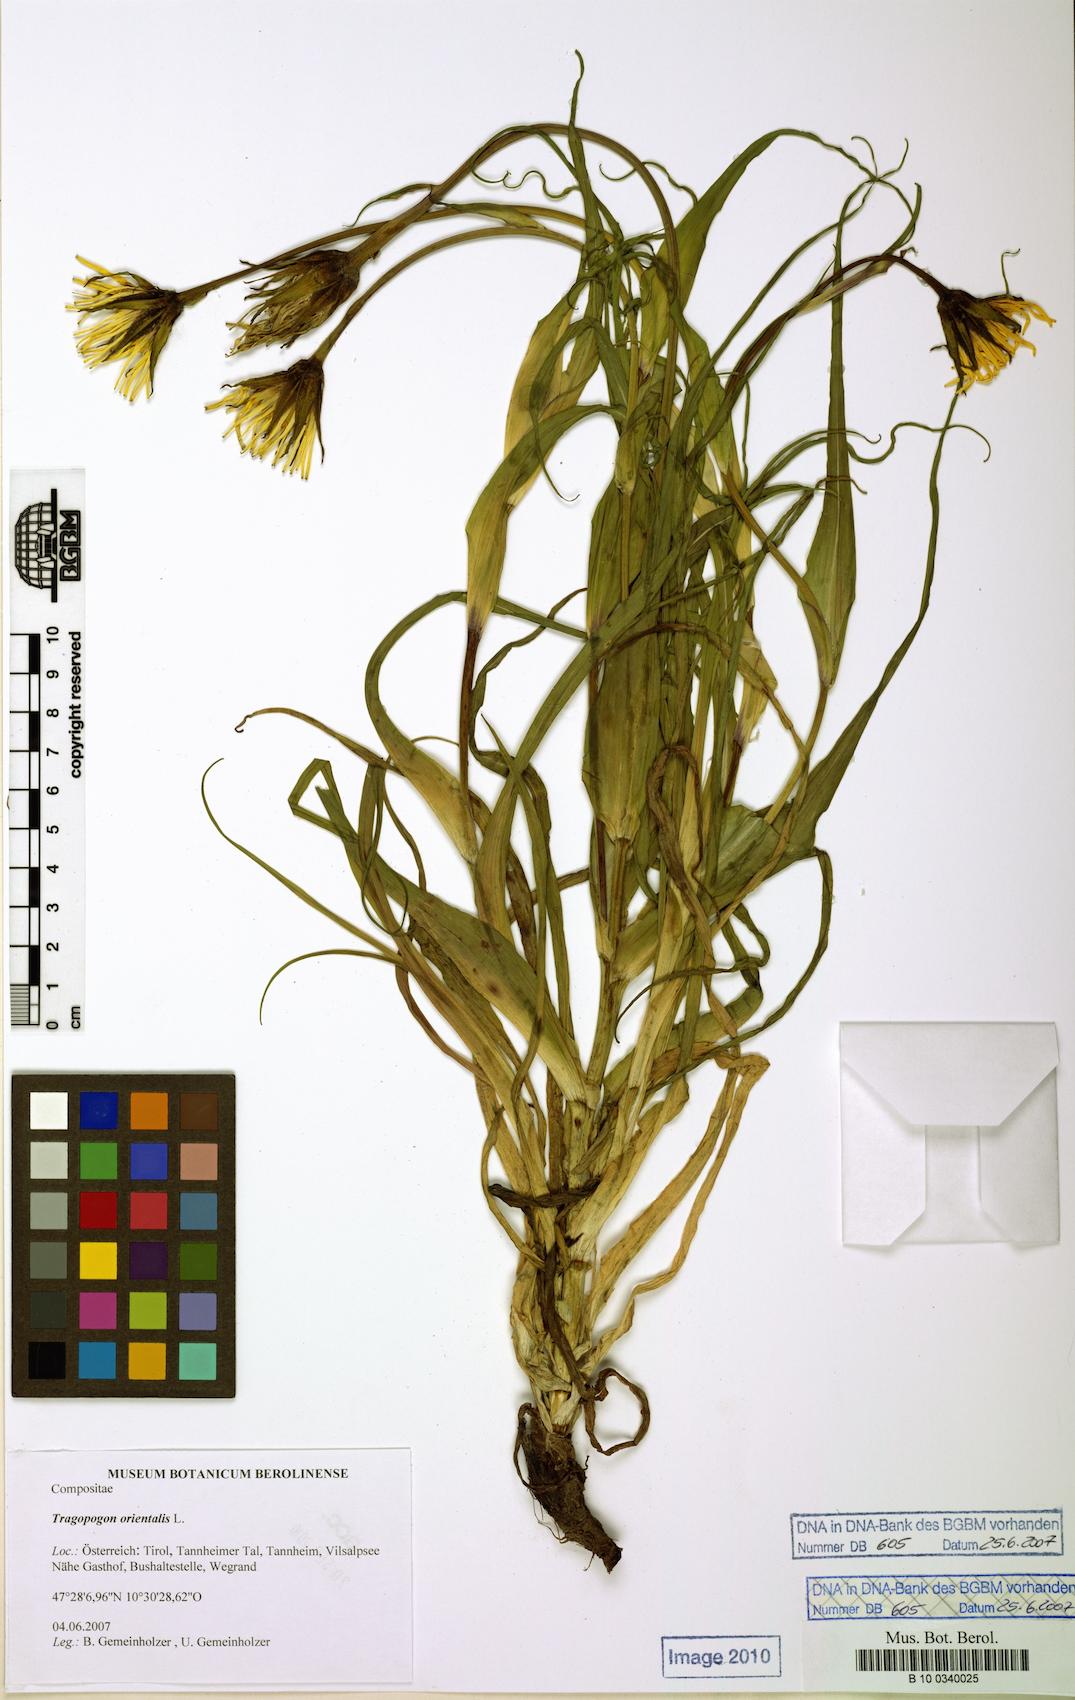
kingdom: Plantae
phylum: Tracheophyta
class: Magnoliopsida
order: Asterales
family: Asteraceae
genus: Tragopogon
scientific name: Tragopogon orientalis
